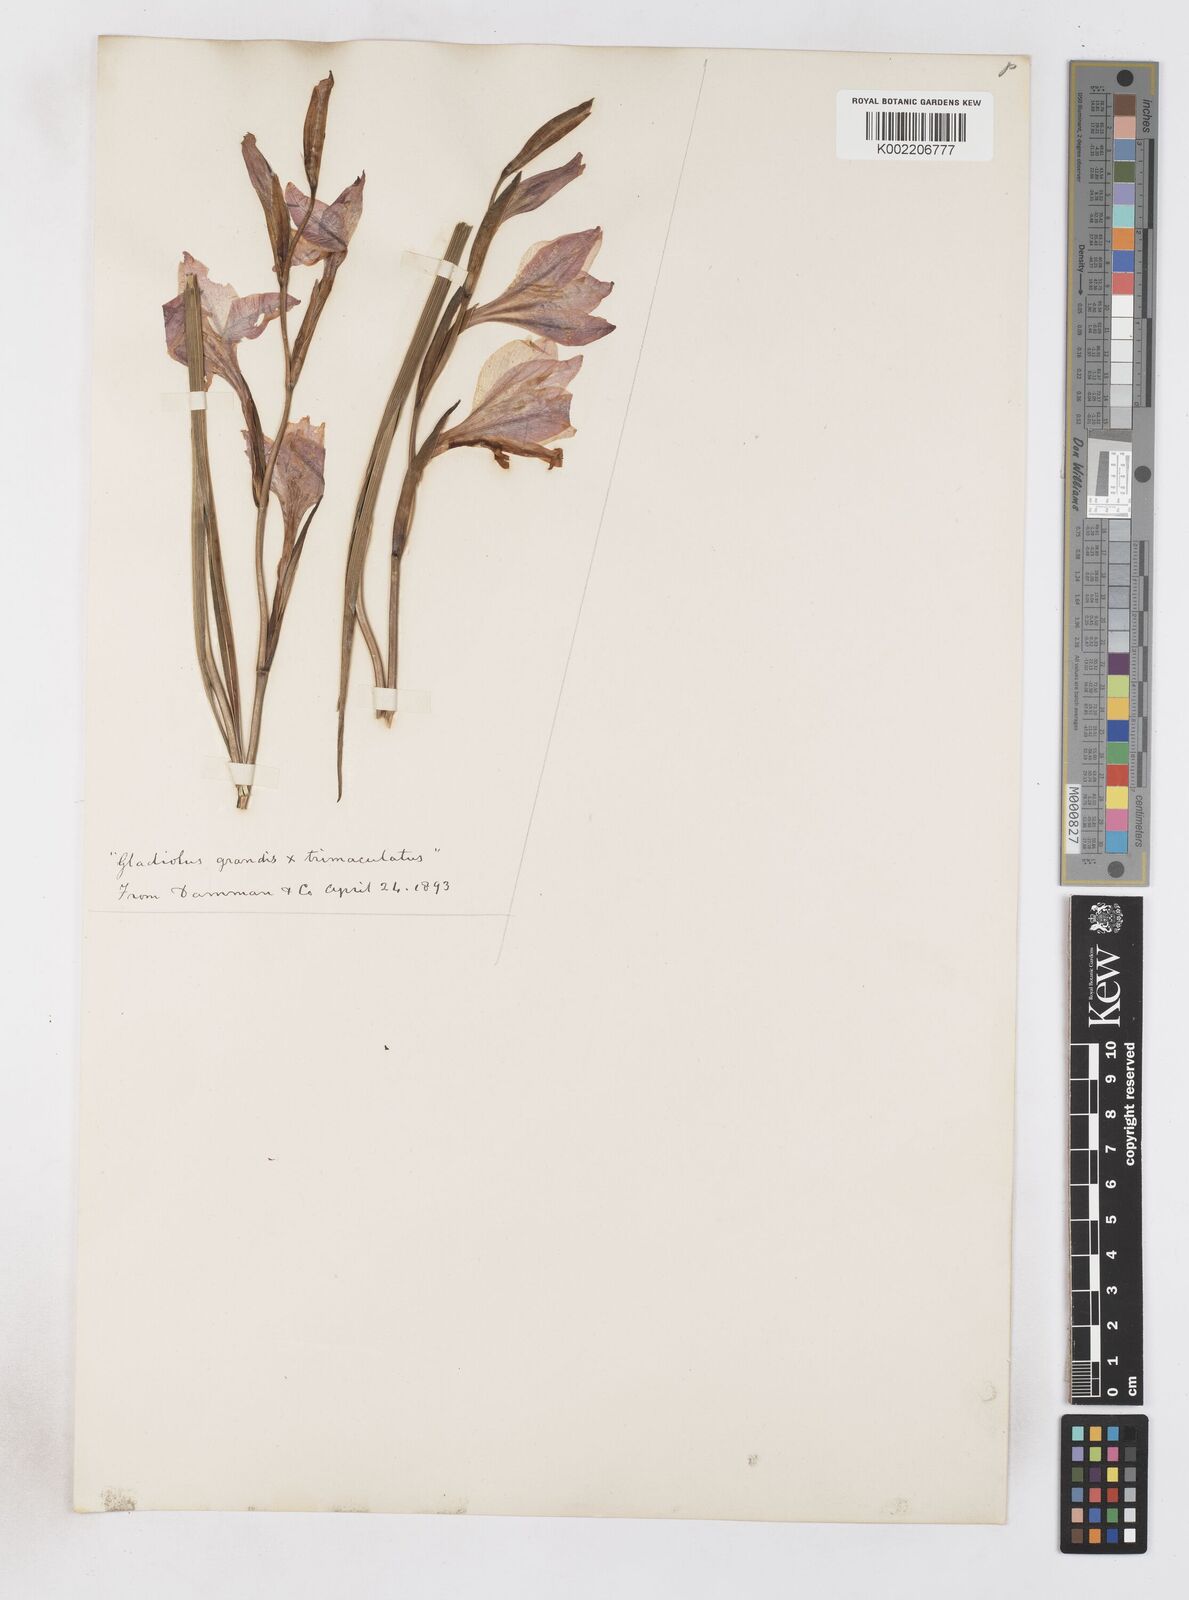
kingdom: Plantae
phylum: Tracheophyta
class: Liliopsida
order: Asparagales
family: Iridaceae
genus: Gladiolus
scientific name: Gladiolus liliaceus
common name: Large brown afrikaner
